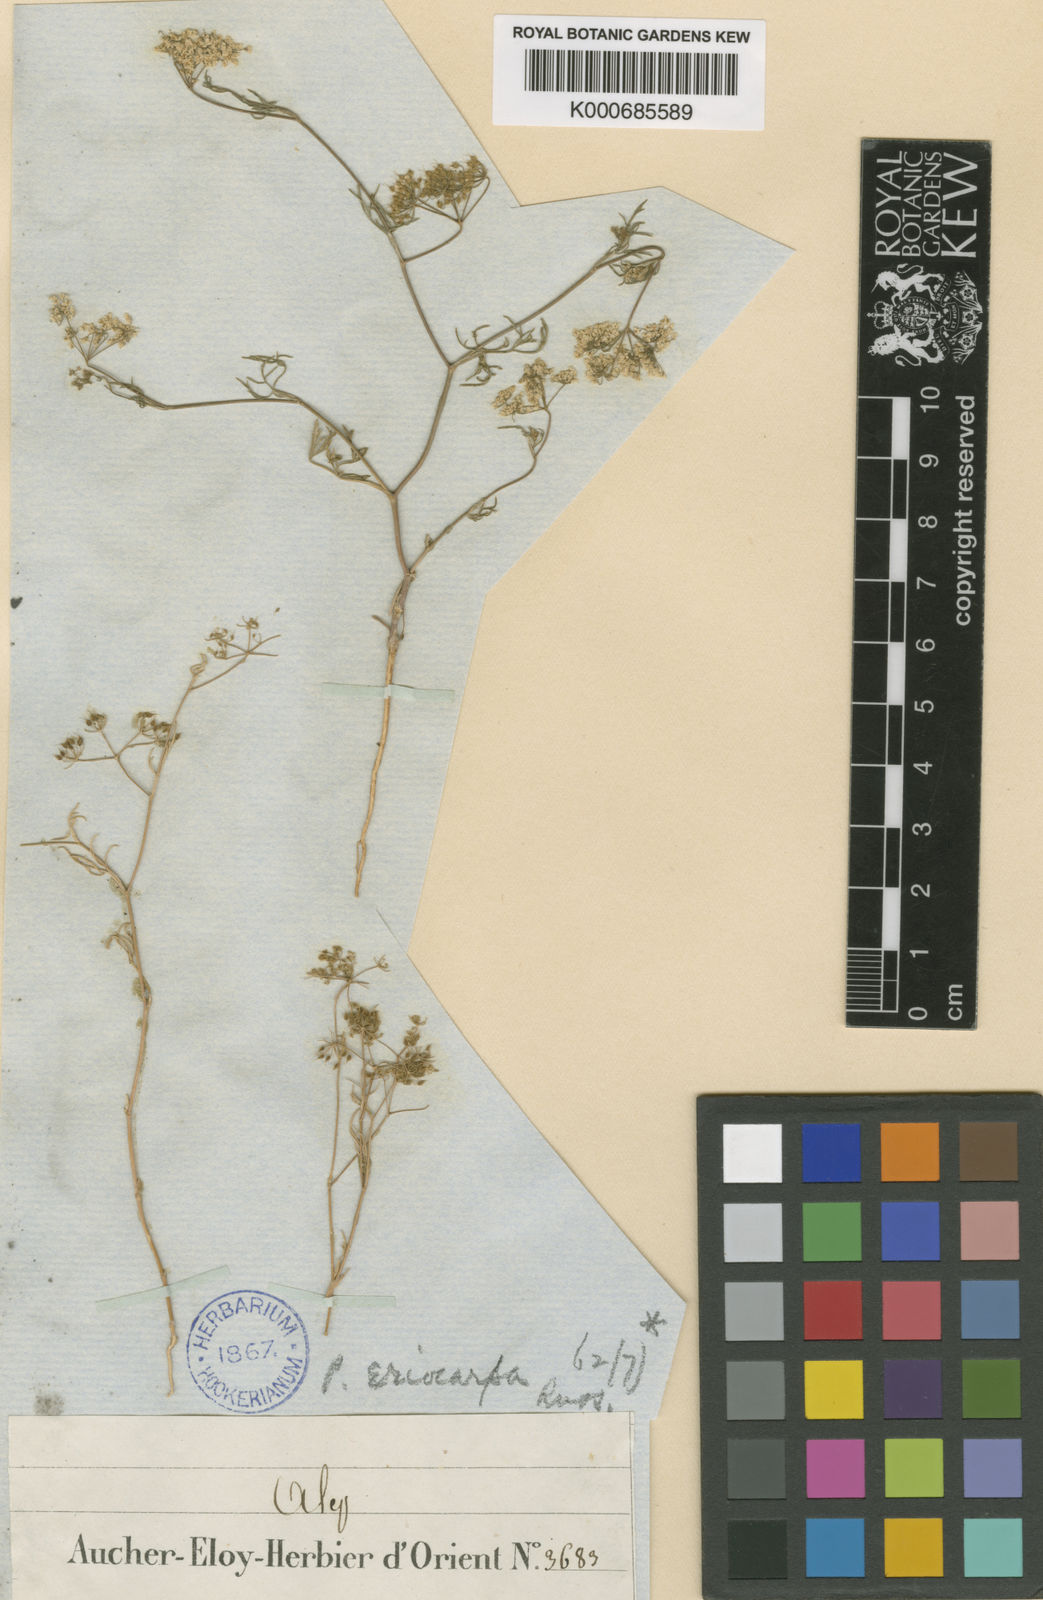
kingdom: Plantae
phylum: Tracheophyta
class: Magnoliopsida
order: Apiales
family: Apiaceae
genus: Pimpinella
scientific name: Pimpinella eriocarpa
